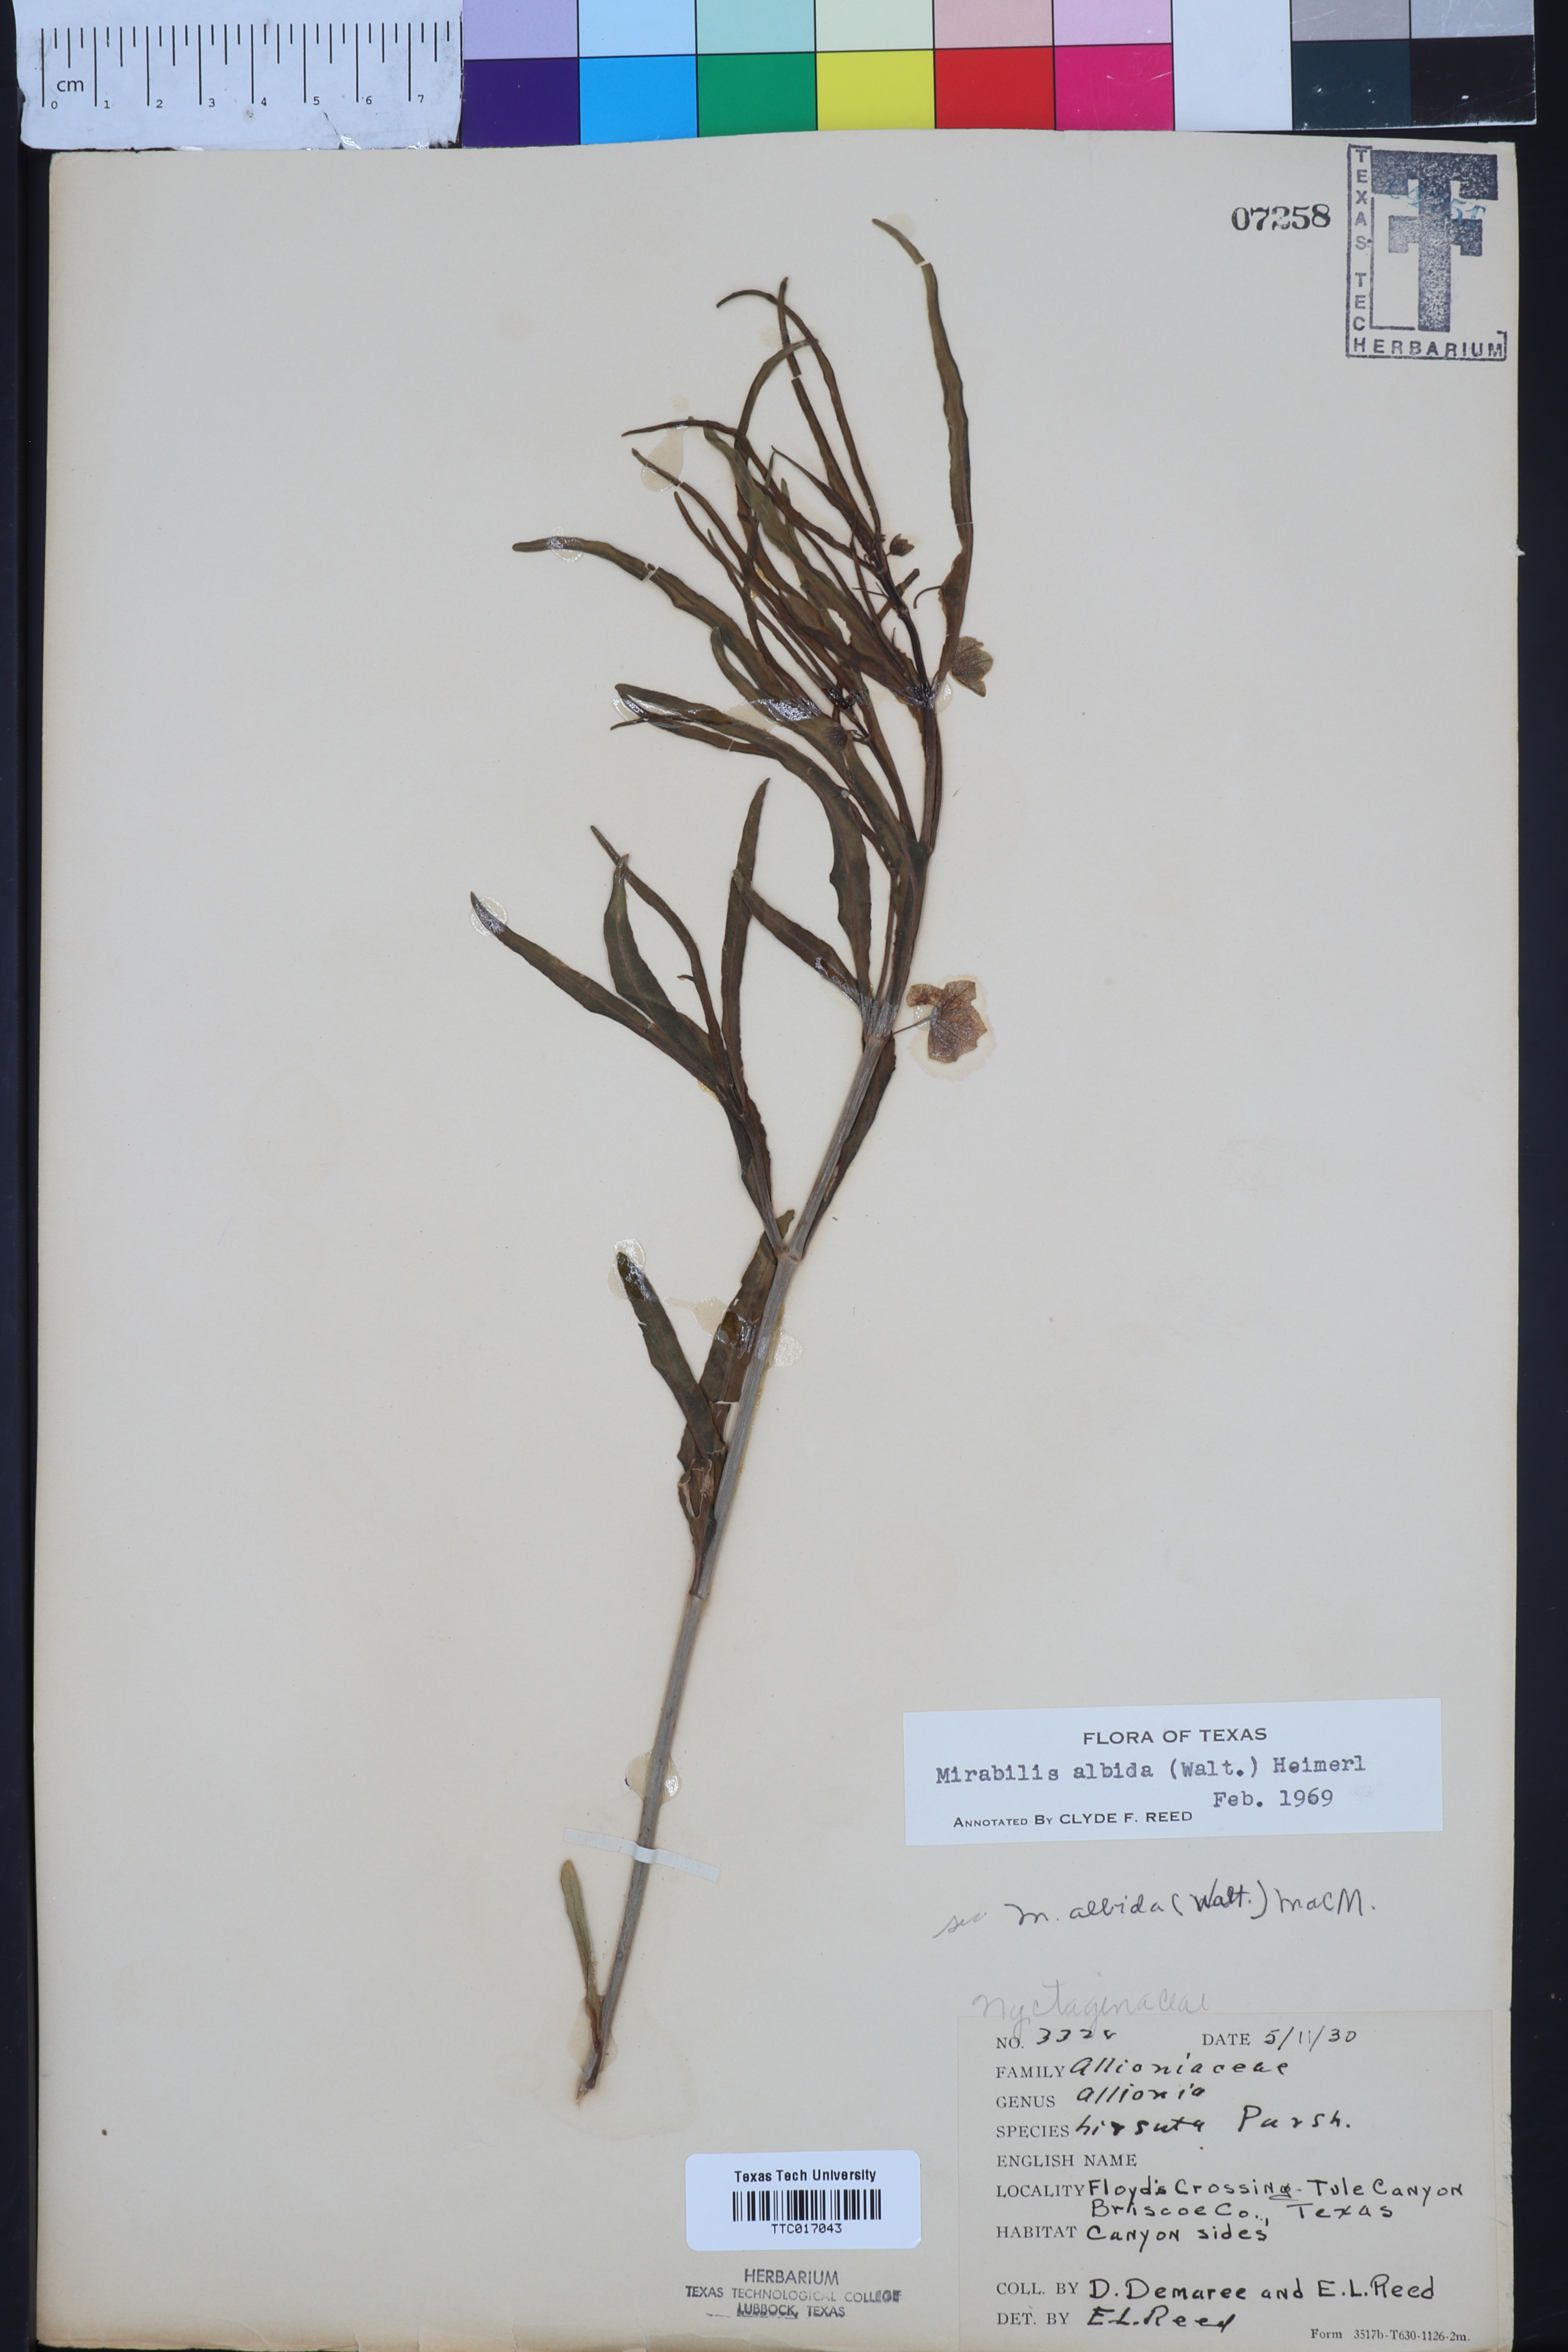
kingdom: Plantae
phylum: Tracheophyta
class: Magnoliopsida
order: Caryophyllales
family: Nyctaginaceae
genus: Mirabilis
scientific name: Mirabilis albida
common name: Hairy four-o'clock
